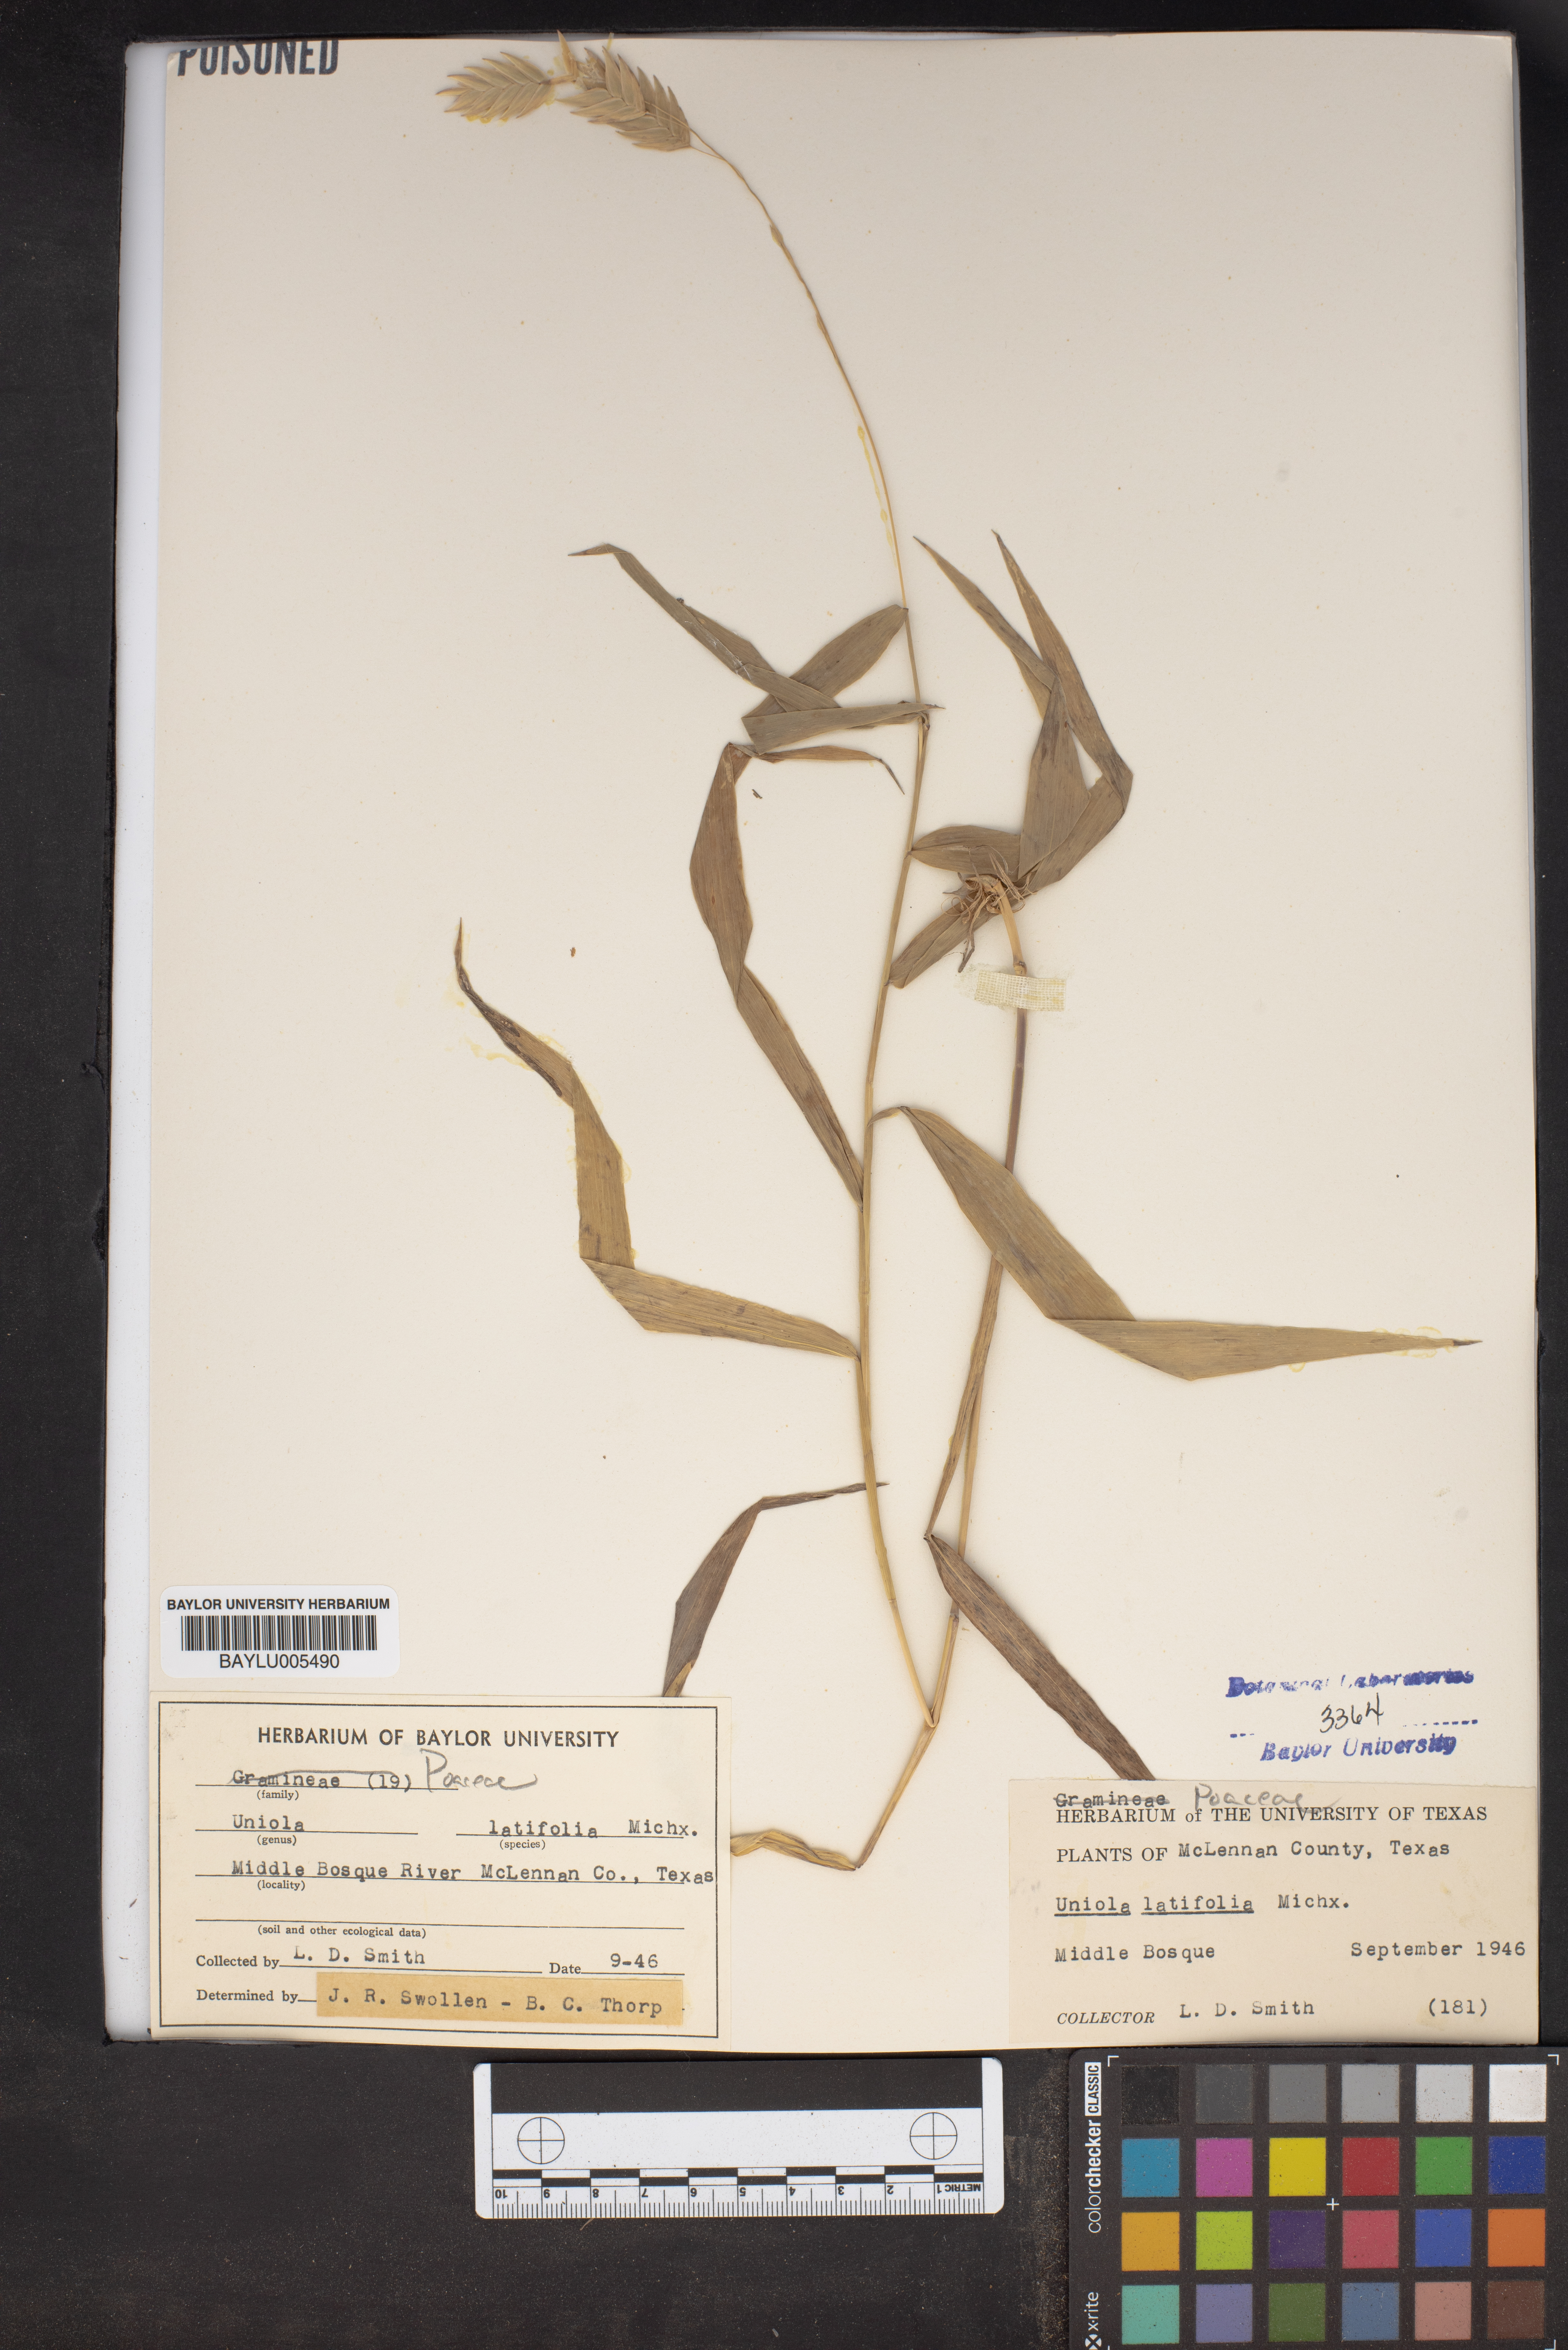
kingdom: Plantae
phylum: Tracheophyta
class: Liliopsida
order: Poales
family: Poaceae
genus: Chasmanthium
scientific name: Chasmanthium latifolium
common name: Broad-leaved chasmanthium
